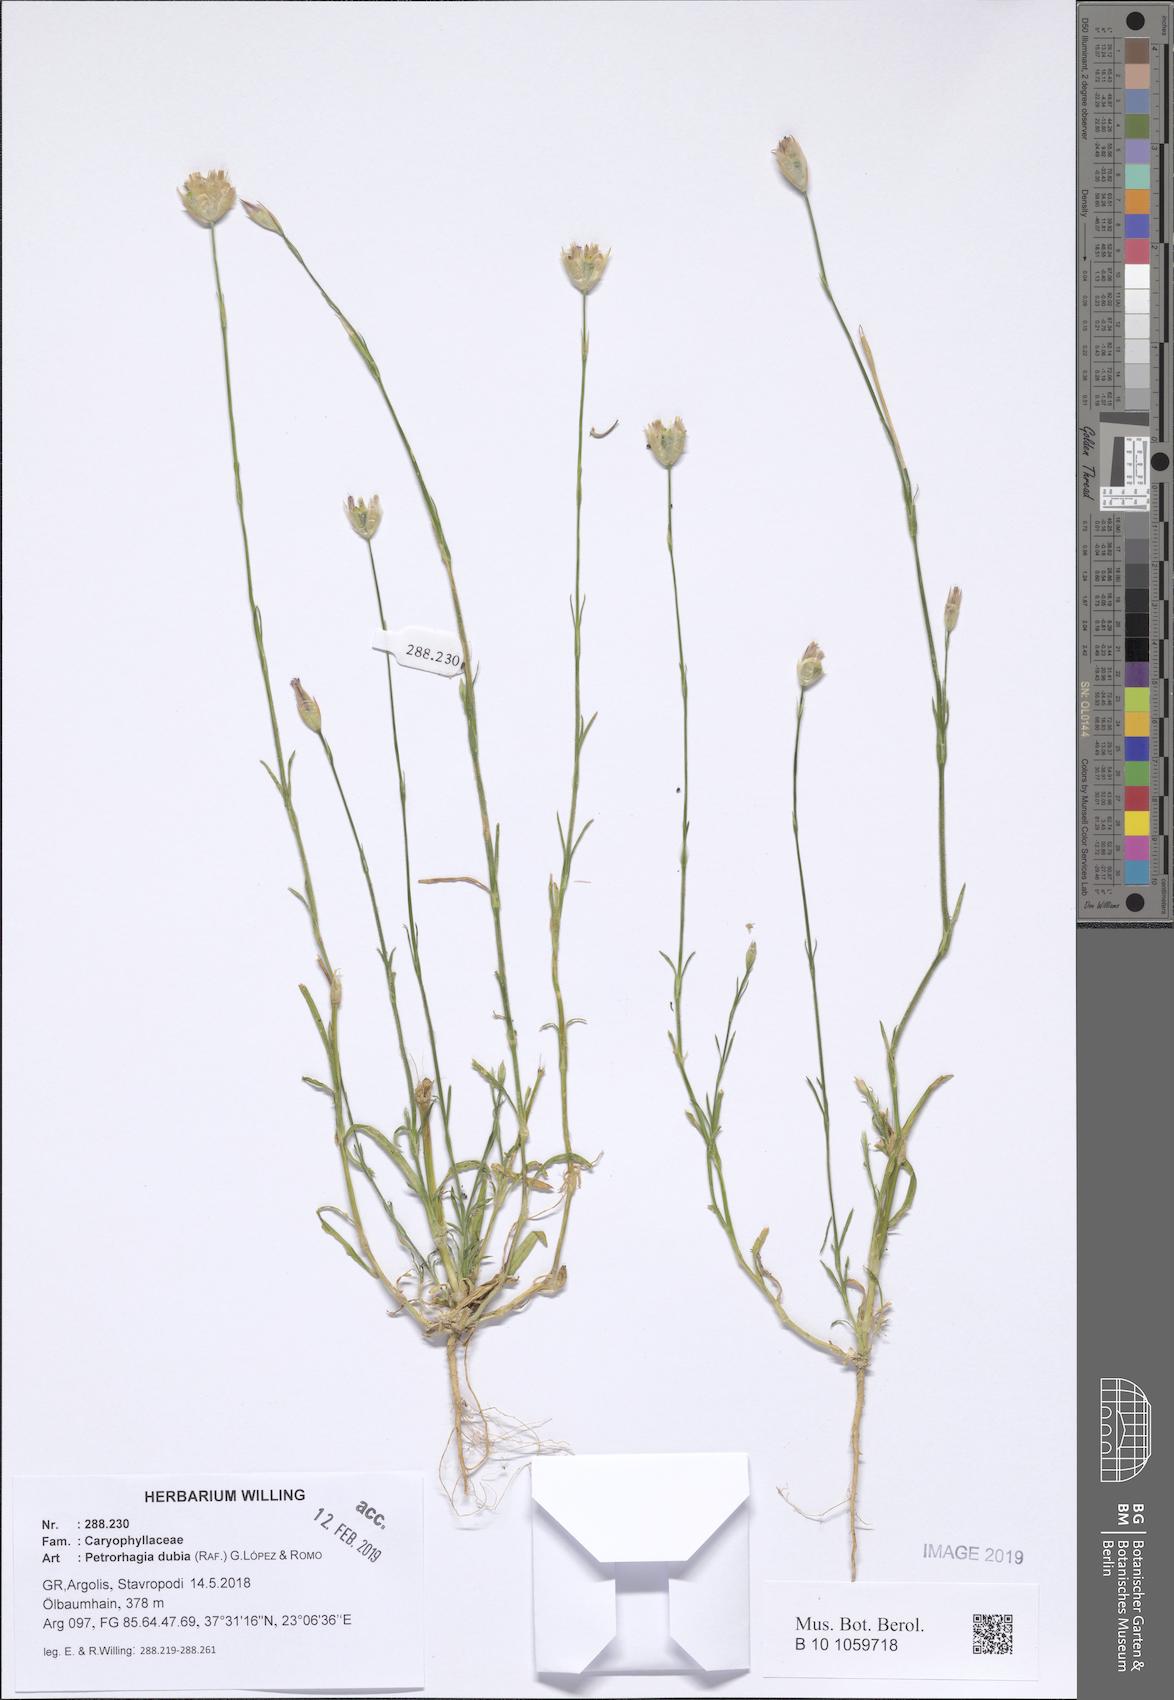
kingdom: Plantae
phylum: Tracheophyta
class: Magnoliopsida
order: Caryophyllales
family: Caryophyllaceae
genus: Petrorhagia
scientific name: Petrorhagia dubia
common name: Hairypink
